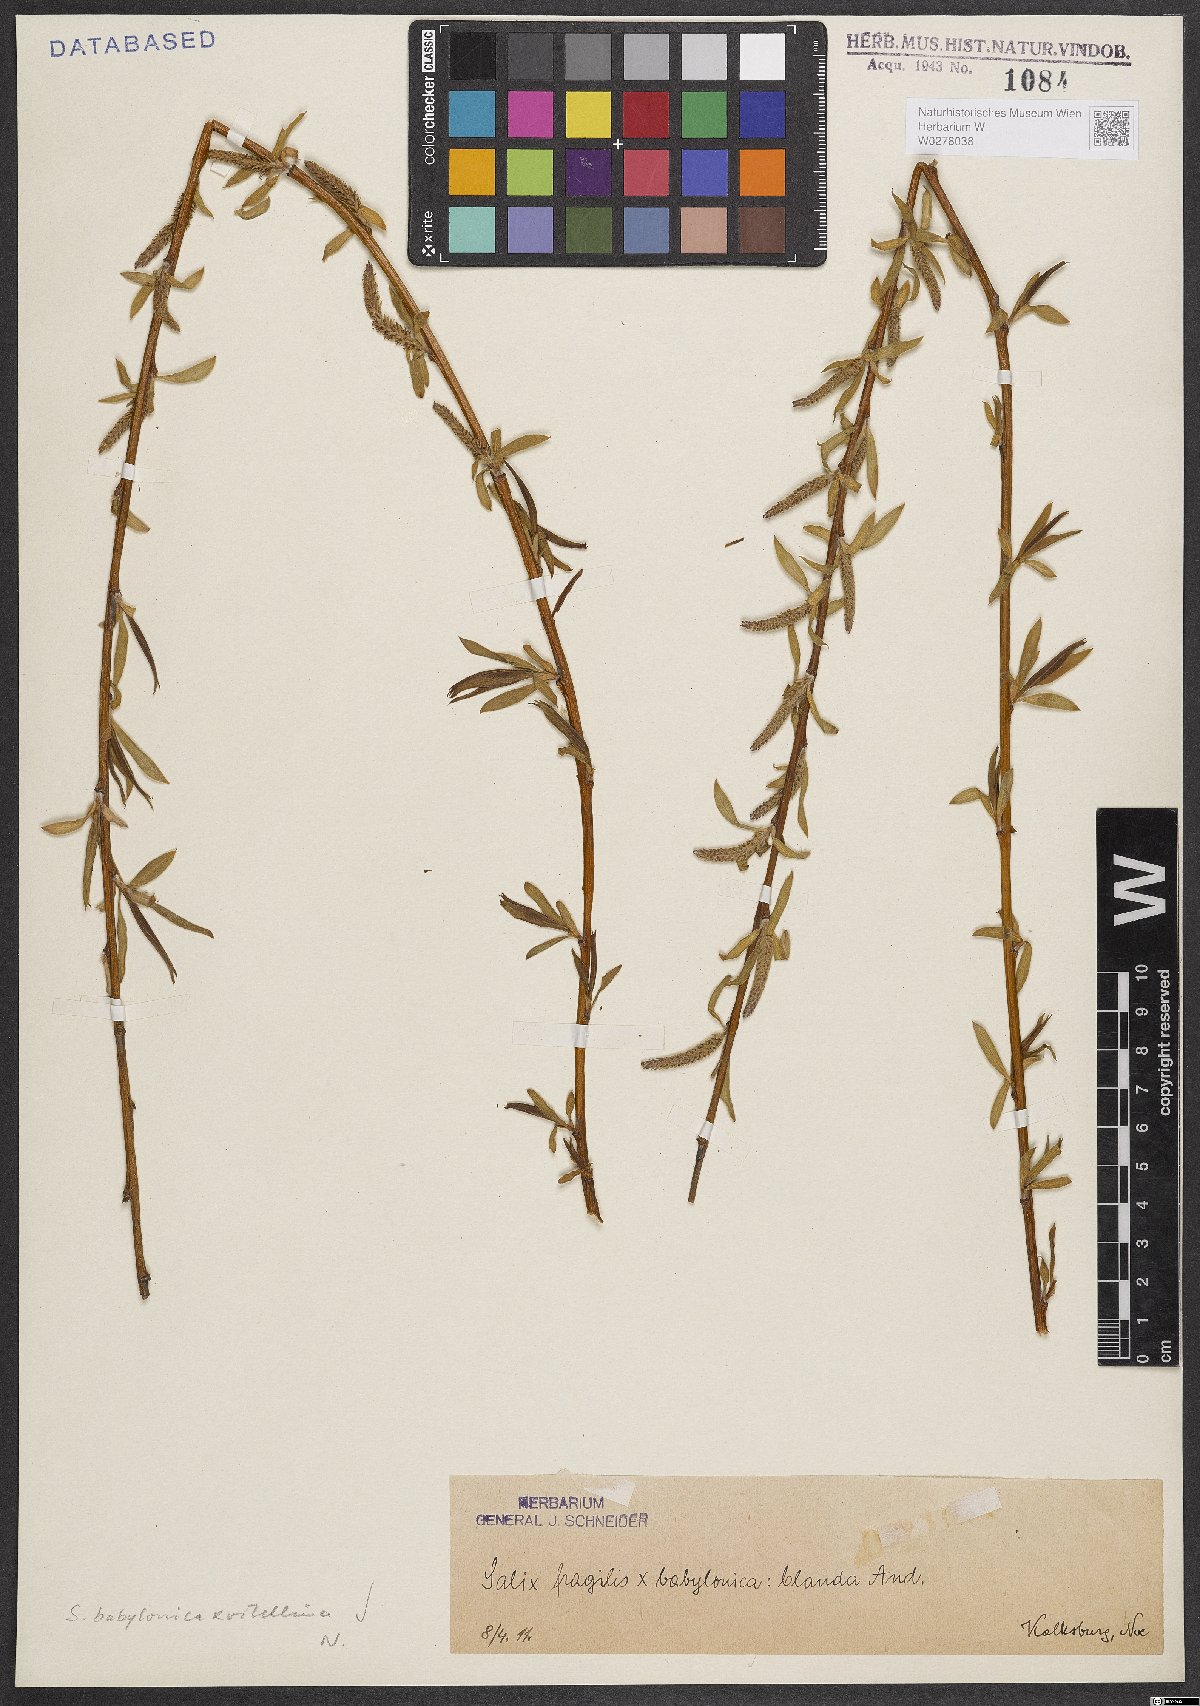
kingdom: Plantae
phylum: Tracheophyta
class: Magnoliopsida
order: Malpighiales
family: Salicaceae
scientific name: Salicaceae
